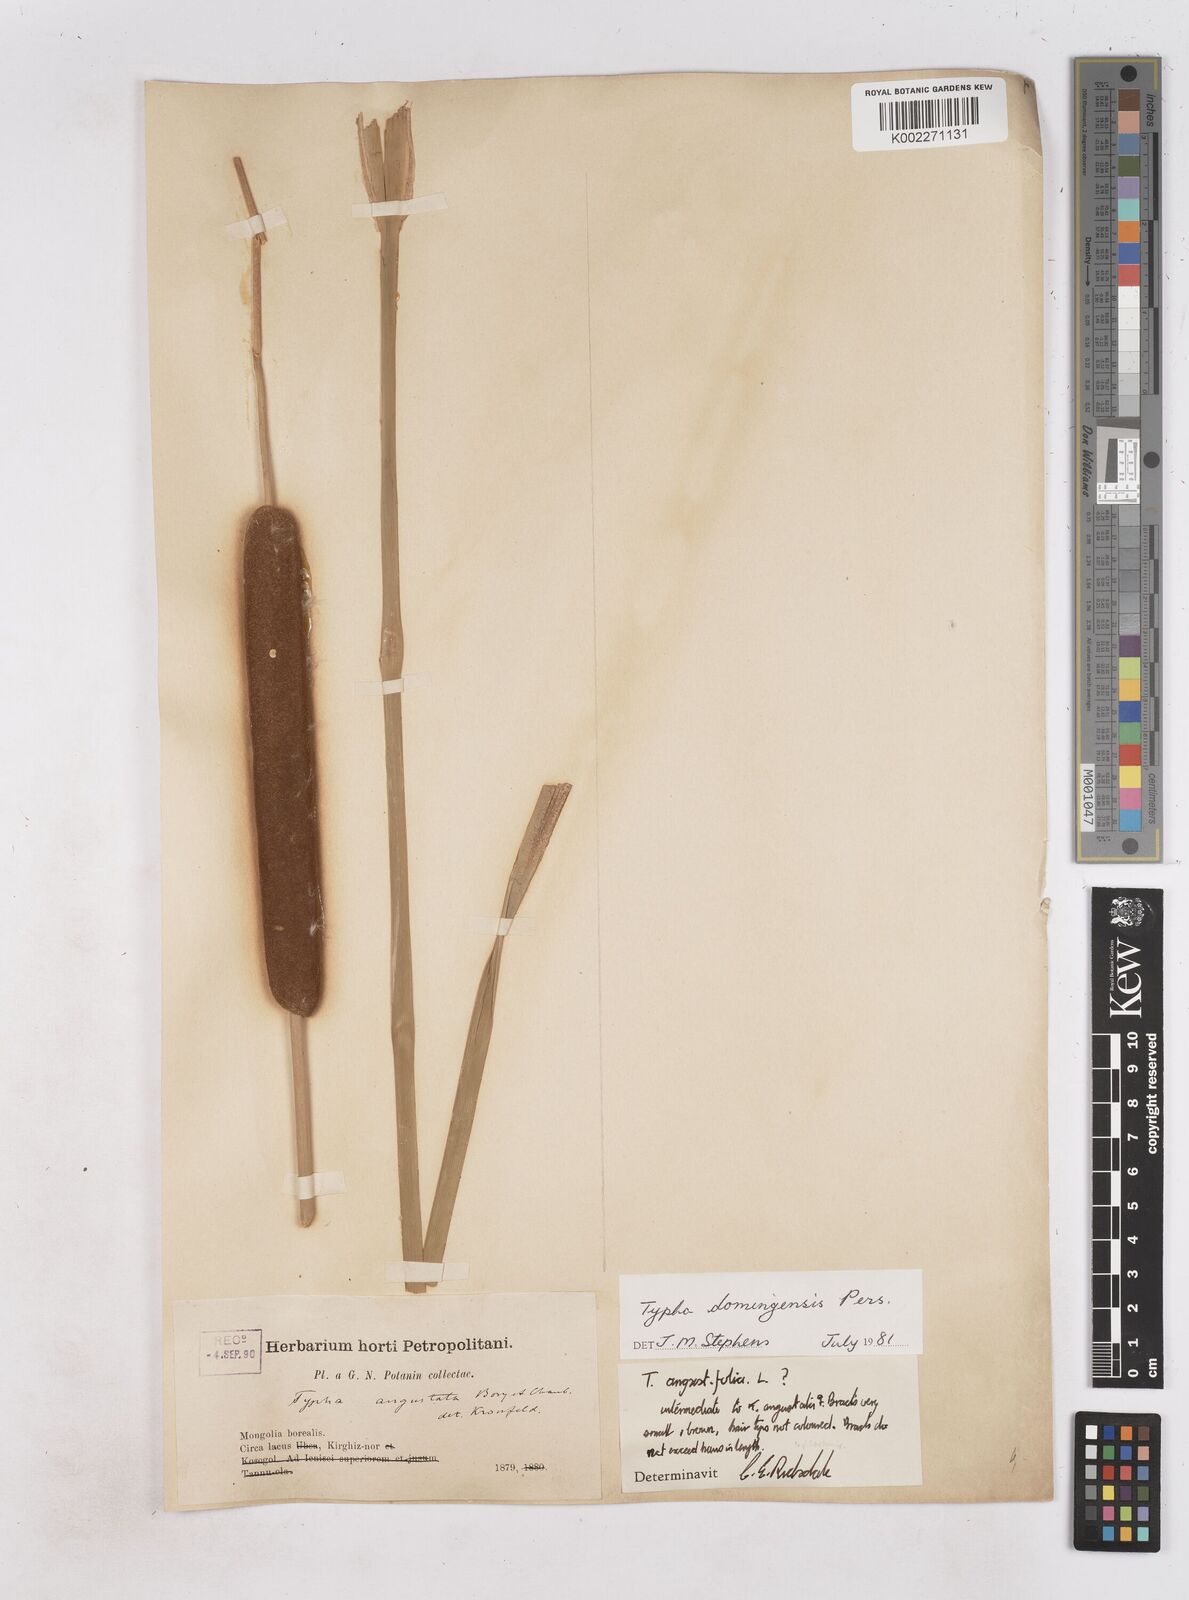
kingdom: Plantae
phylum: Tracheophyta
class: Liliopsida
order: Poales
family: Typhaceae
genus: Typha
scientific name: Typha domingensis
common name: Southern cattail
